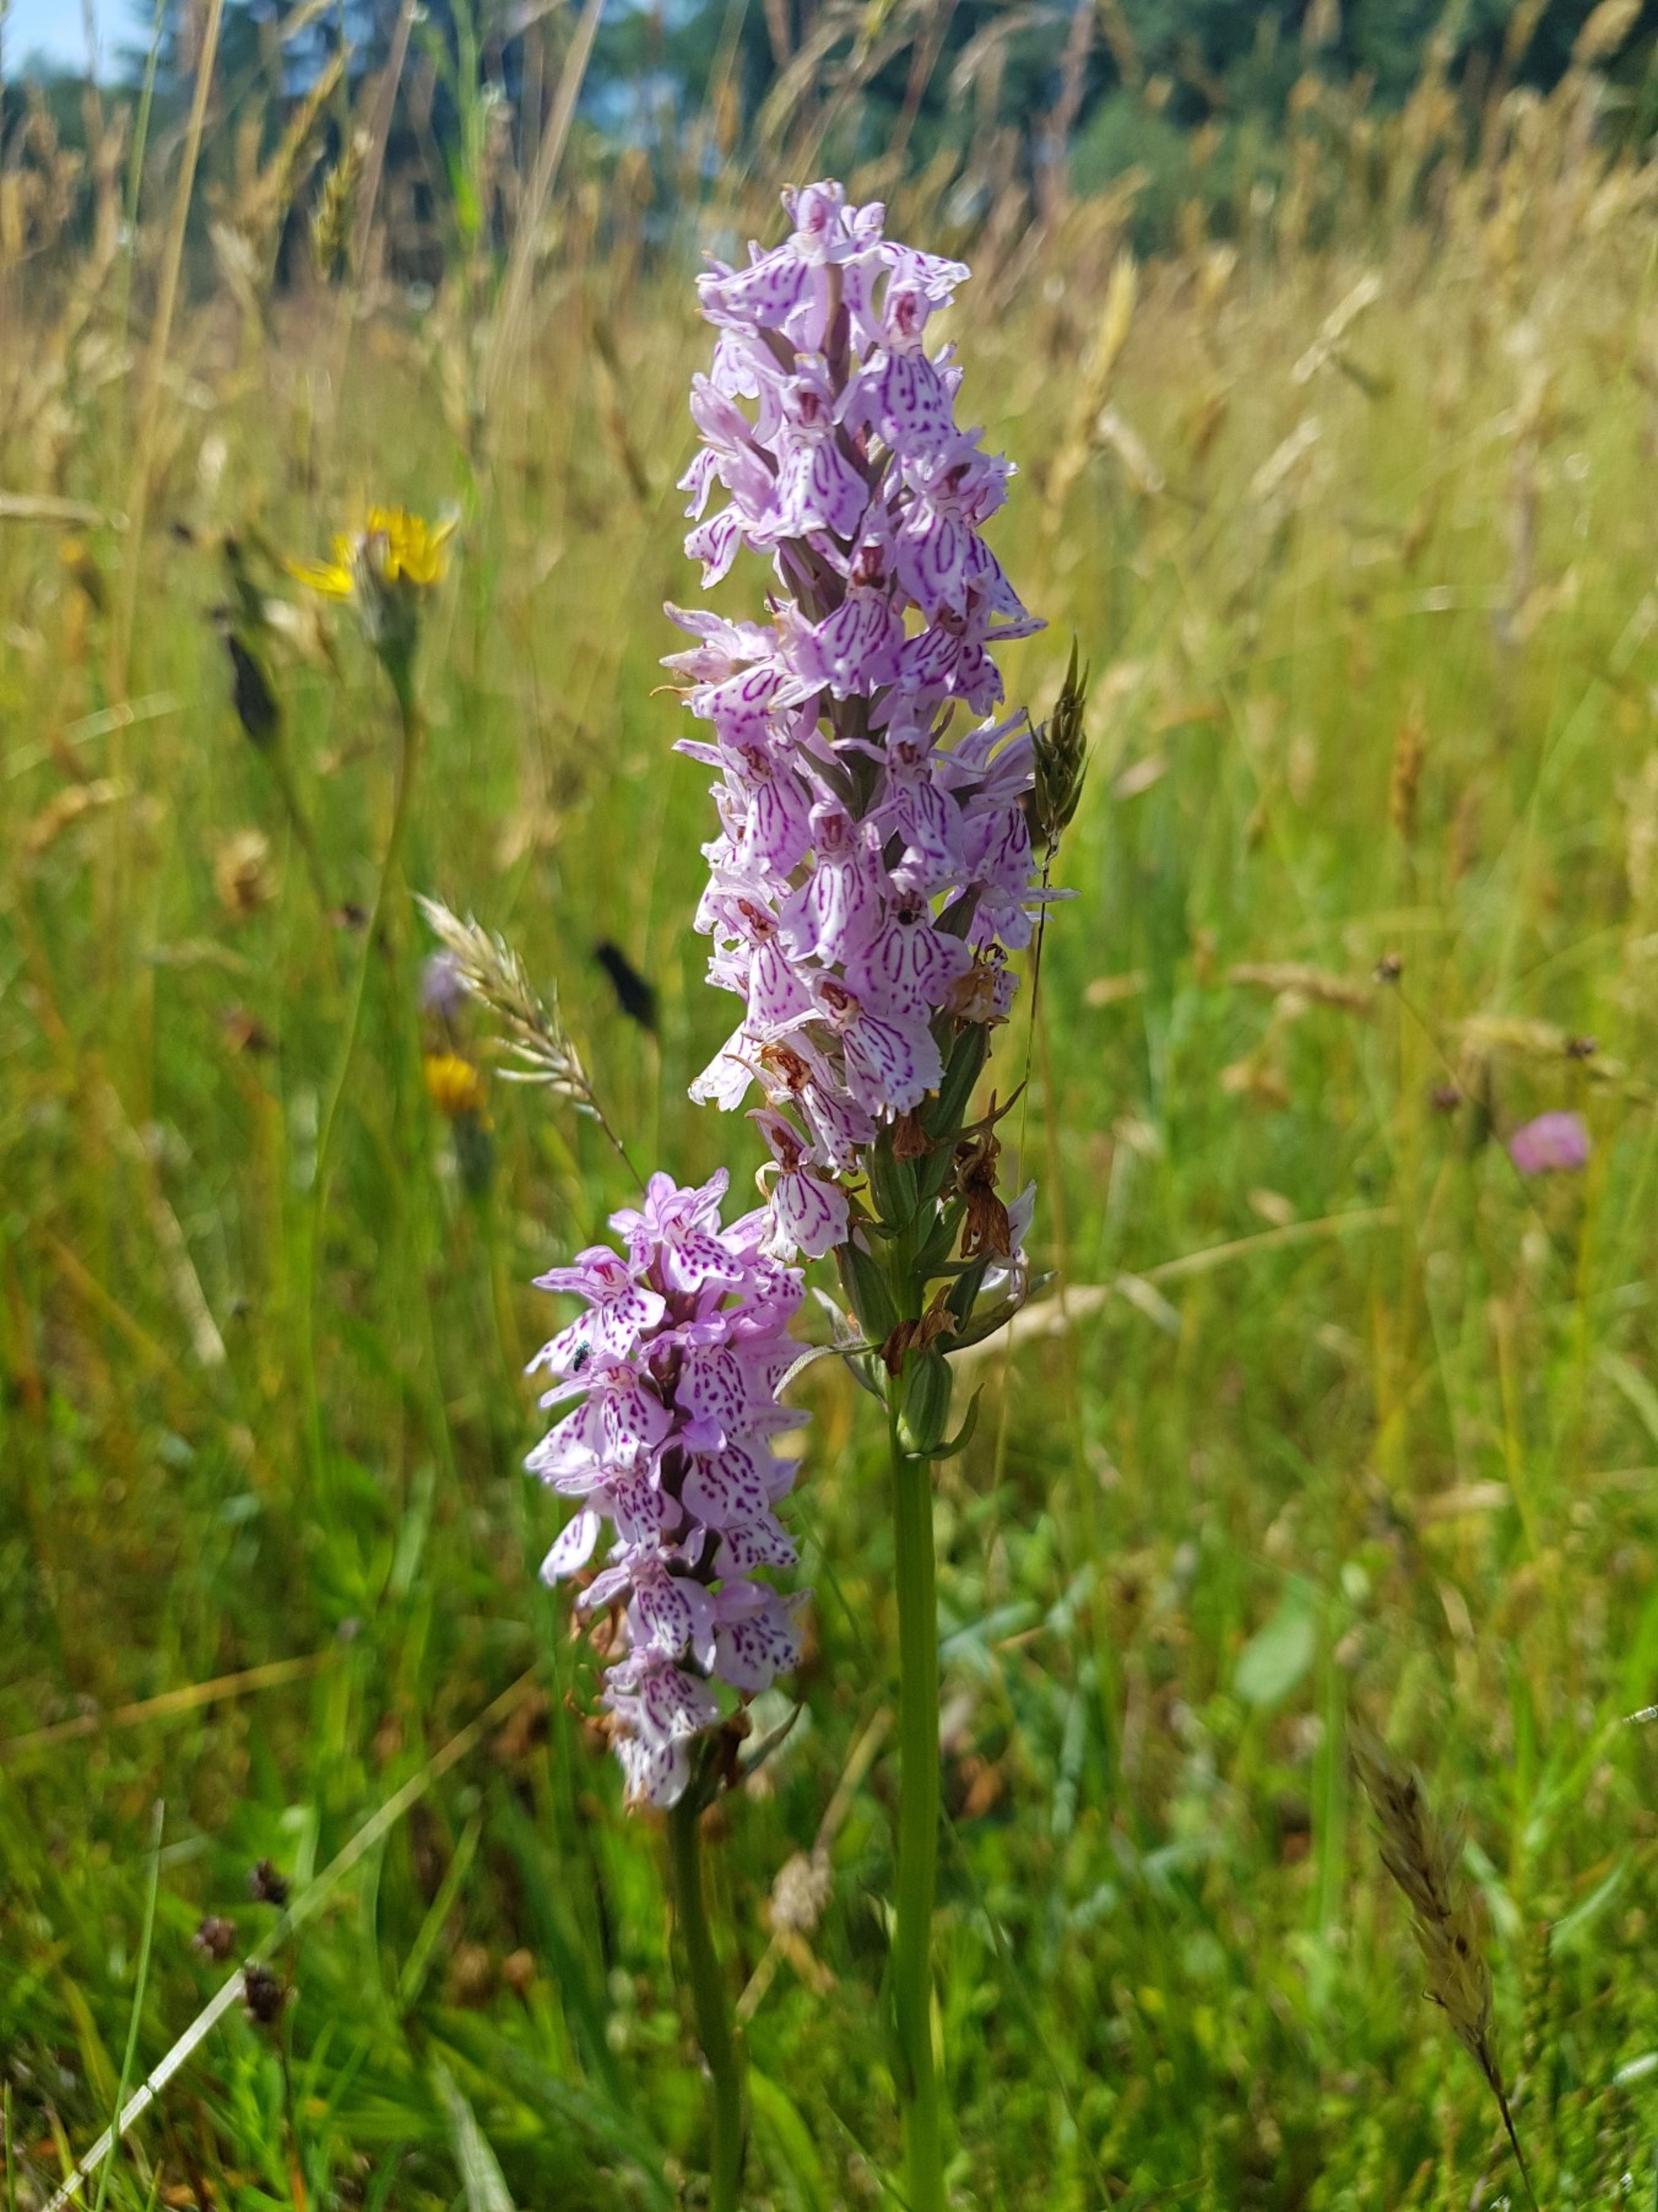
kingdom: Plantae
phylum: Tracheophyta
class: Liliopsida
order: Asparagales
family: Orchidaceae
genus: Dactylorhiza
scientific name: Dactylorhiza maculata
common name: Plettet gøgeurt
